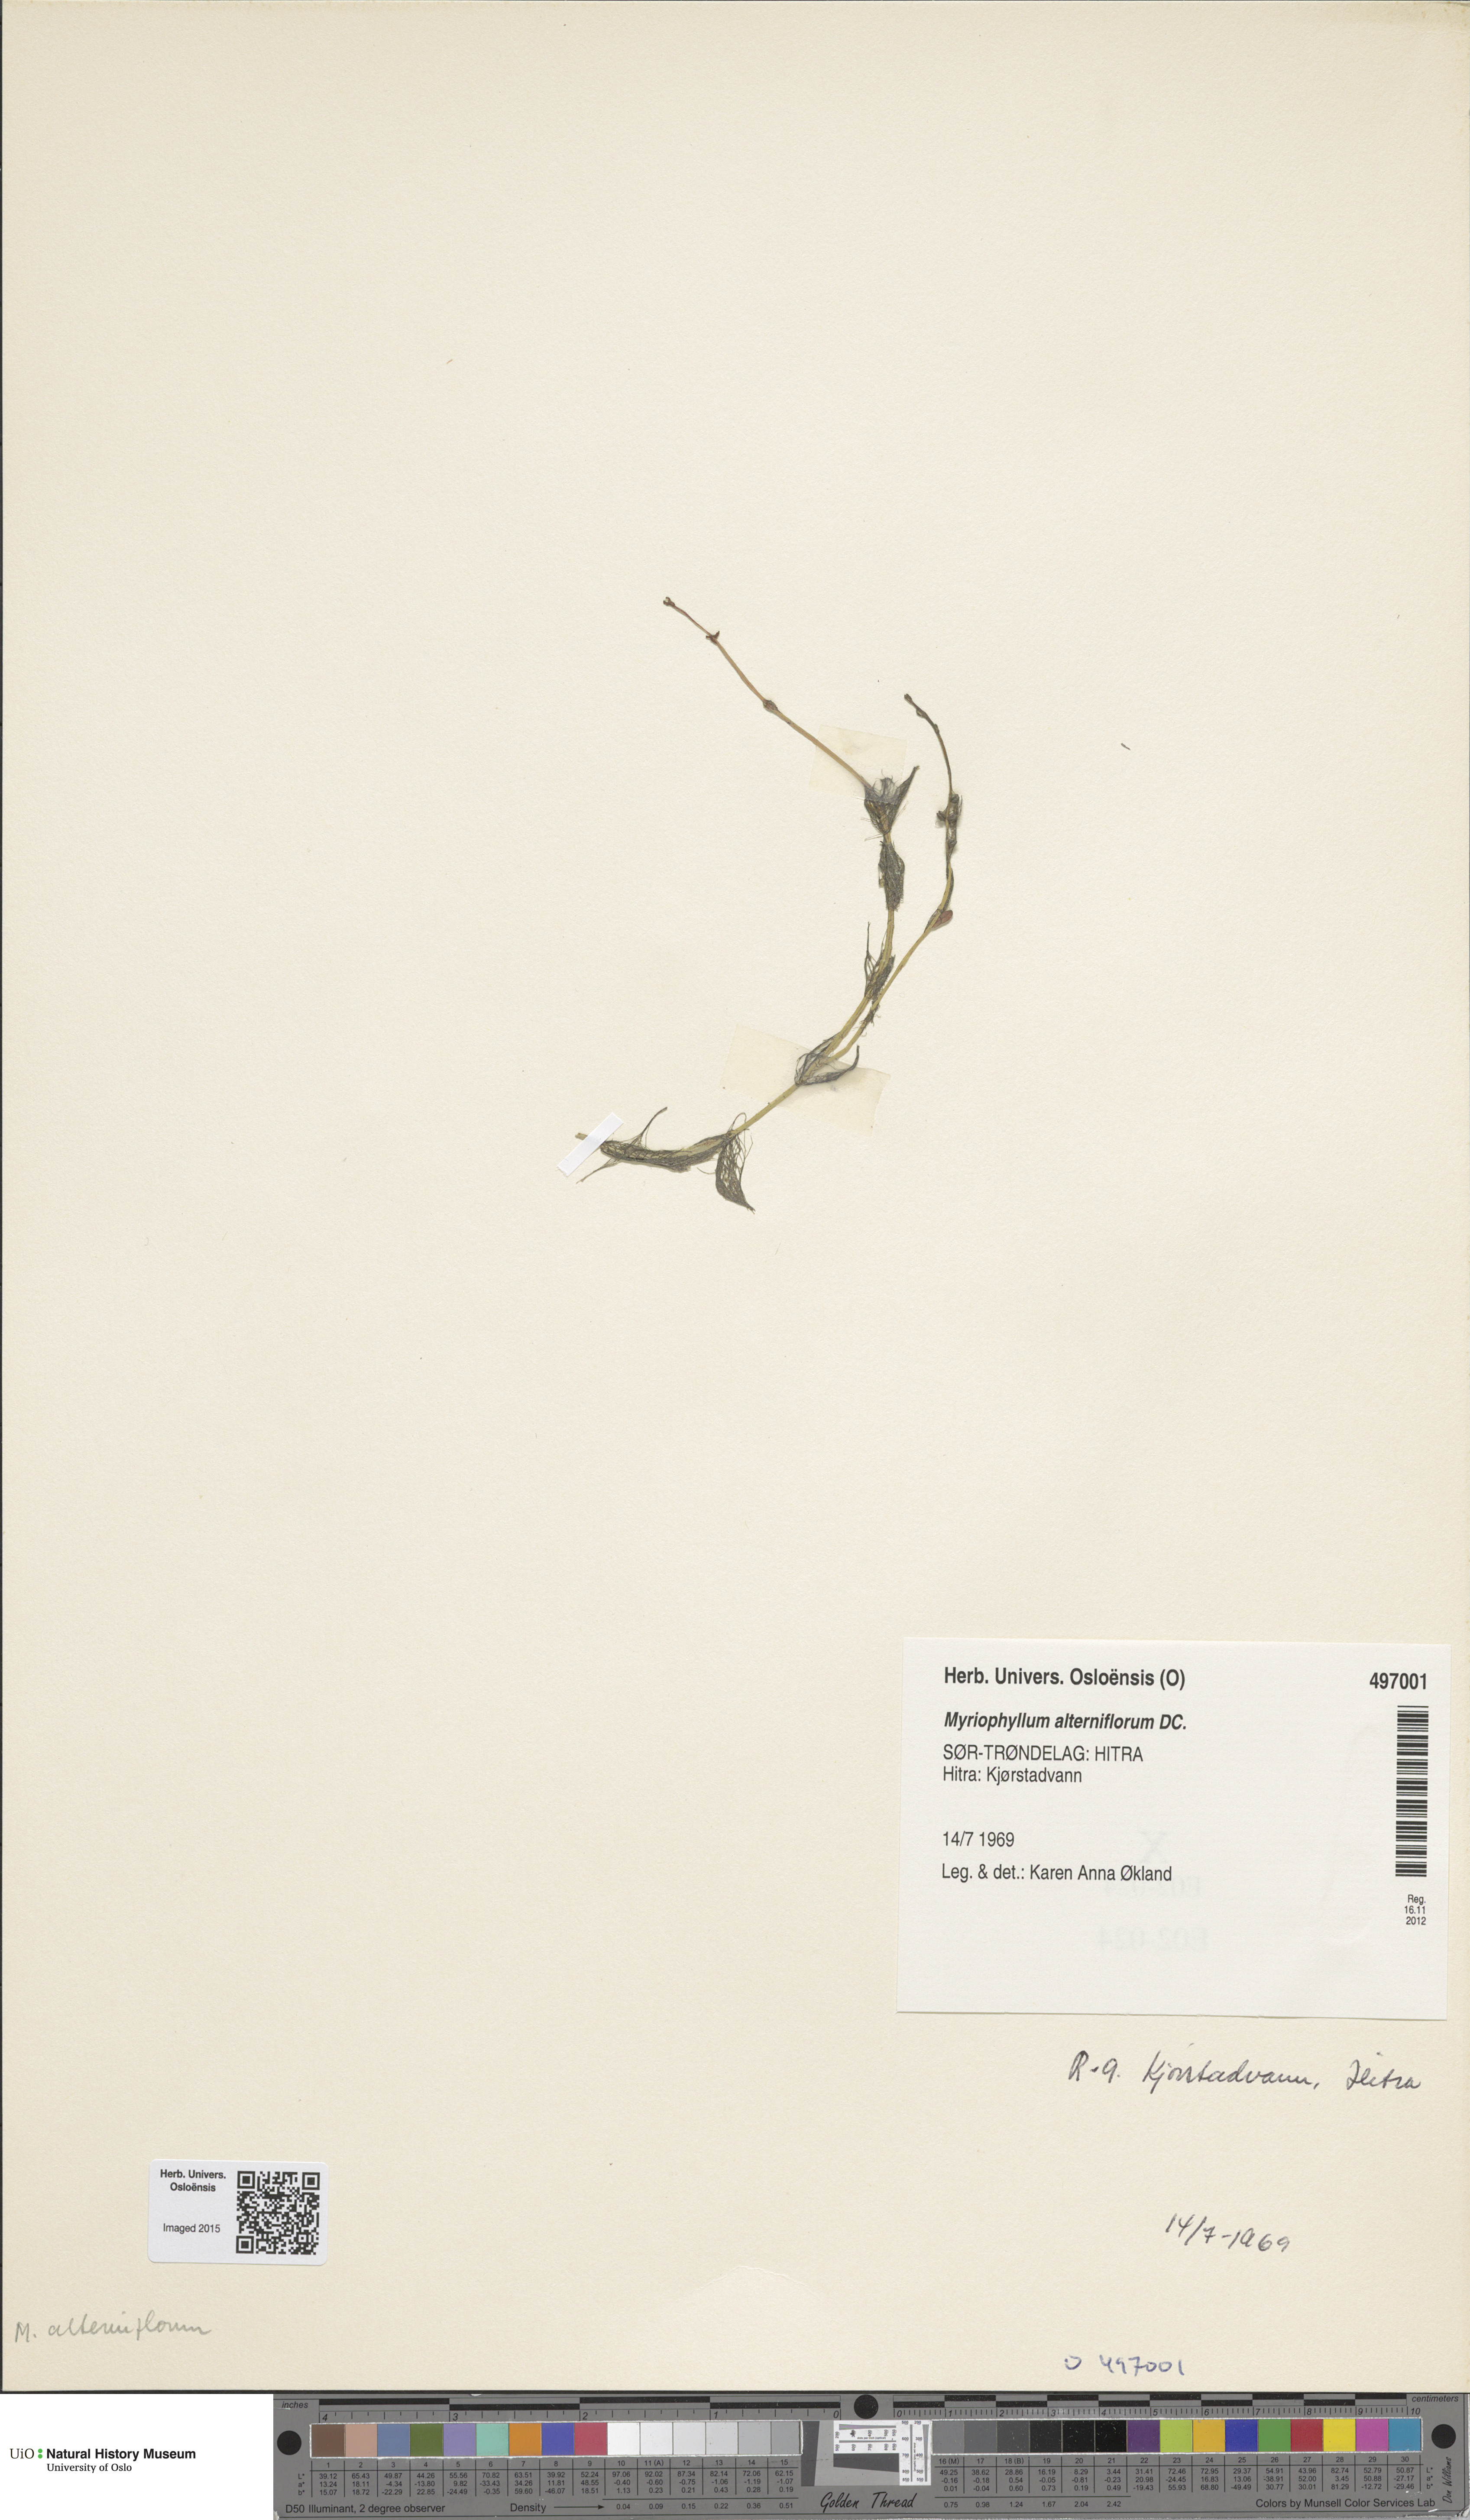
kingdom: Plantae
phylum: Tracheophyta
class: Magnoliopsida
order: Saxifragales
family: Haloragaceae
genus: Myriophyllum
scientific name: Myriophyllum alterniflorum
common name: Alternate water-milfoil
